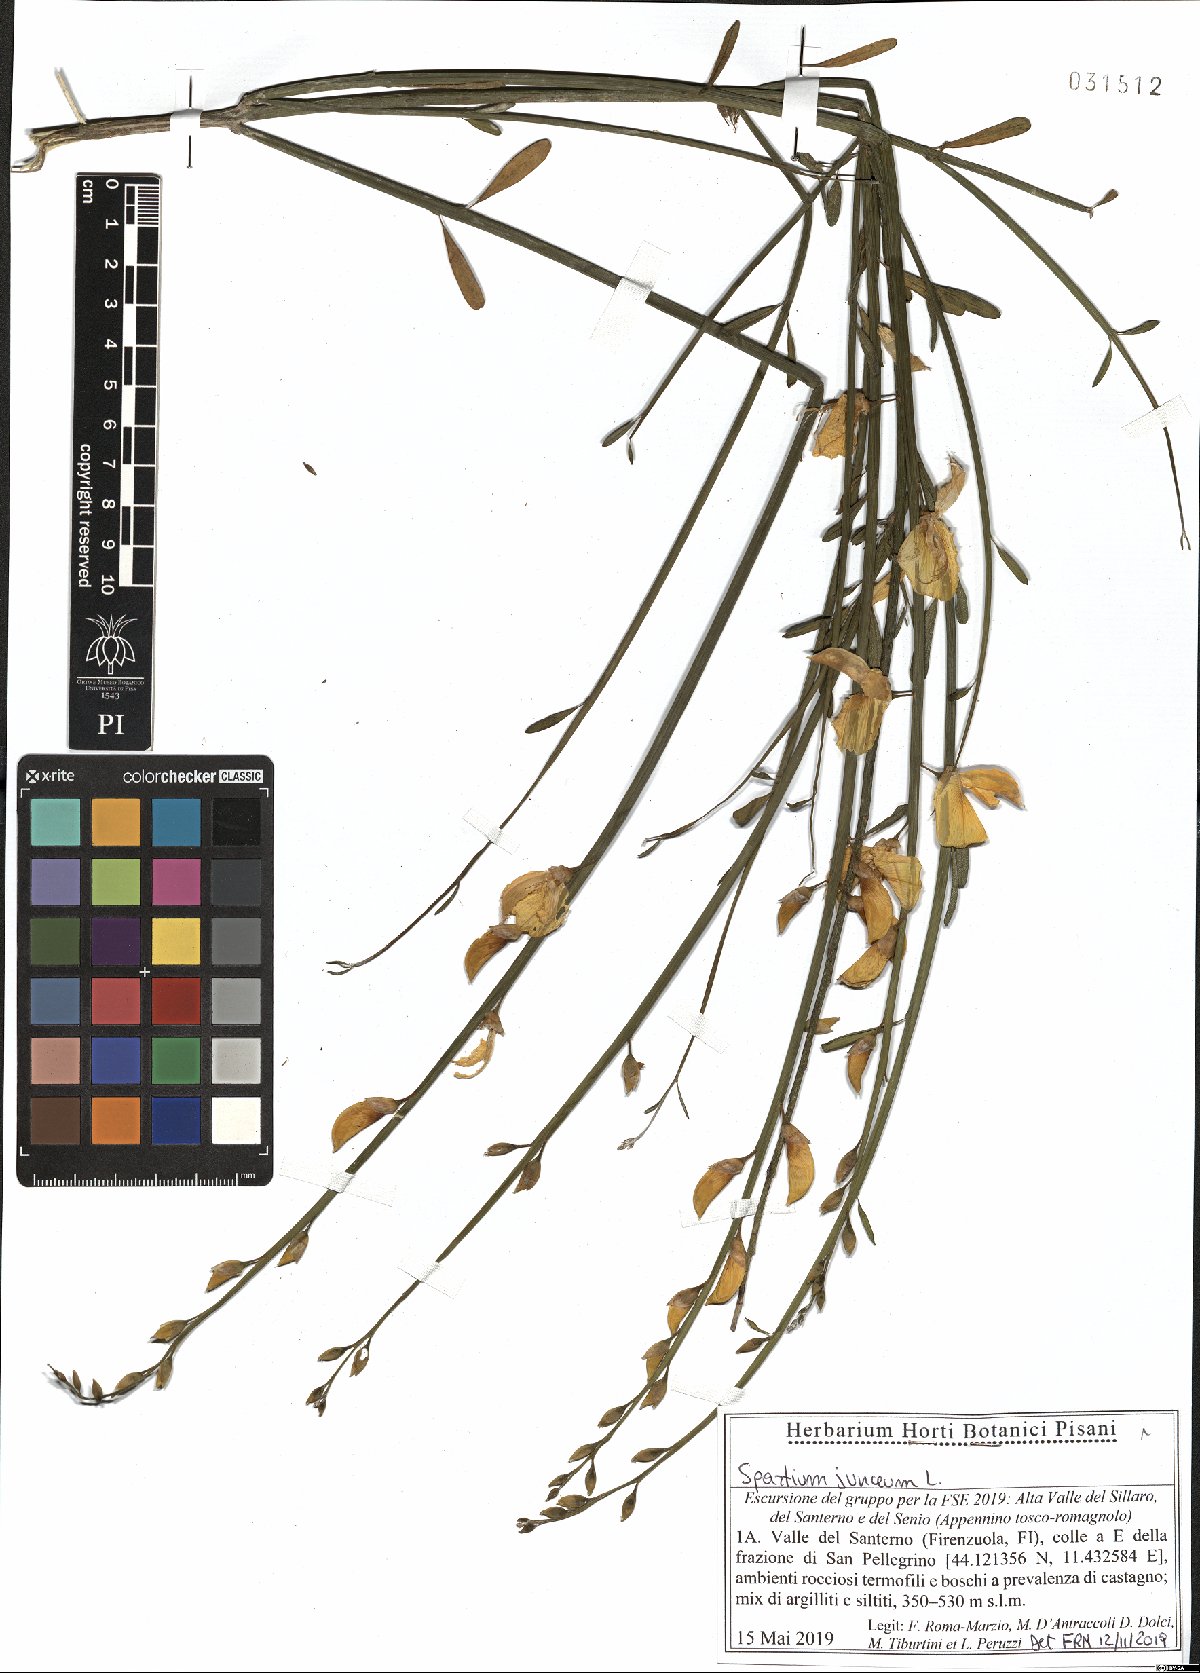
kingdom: Plantae
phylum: Tracheophyta
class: Magnoliopsida
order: Fabales
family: Fabaceae
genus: Spartium
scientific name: Spartium junceum
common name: Spanish broom
